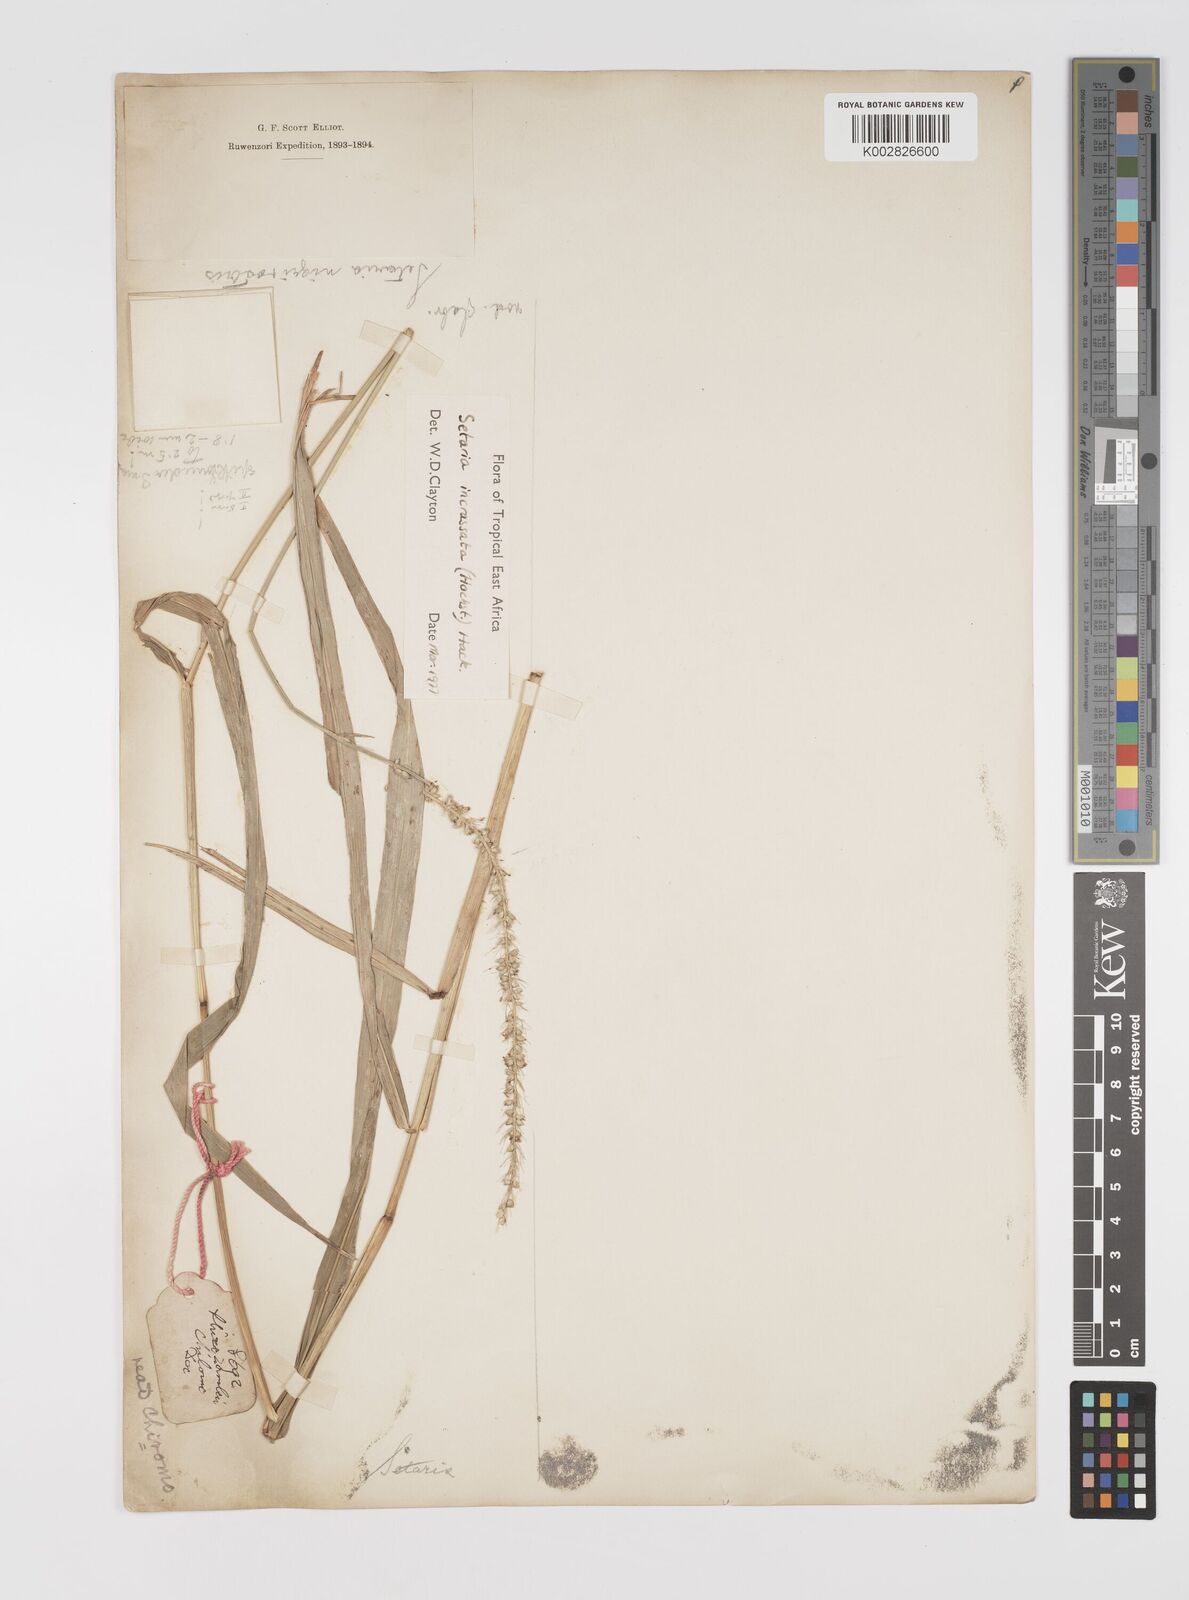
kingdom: Plantae
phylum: Tracheophyta
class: Liliopsida
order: Poales
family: Poaceae
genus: Setaria
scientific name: Setaria incrassata
